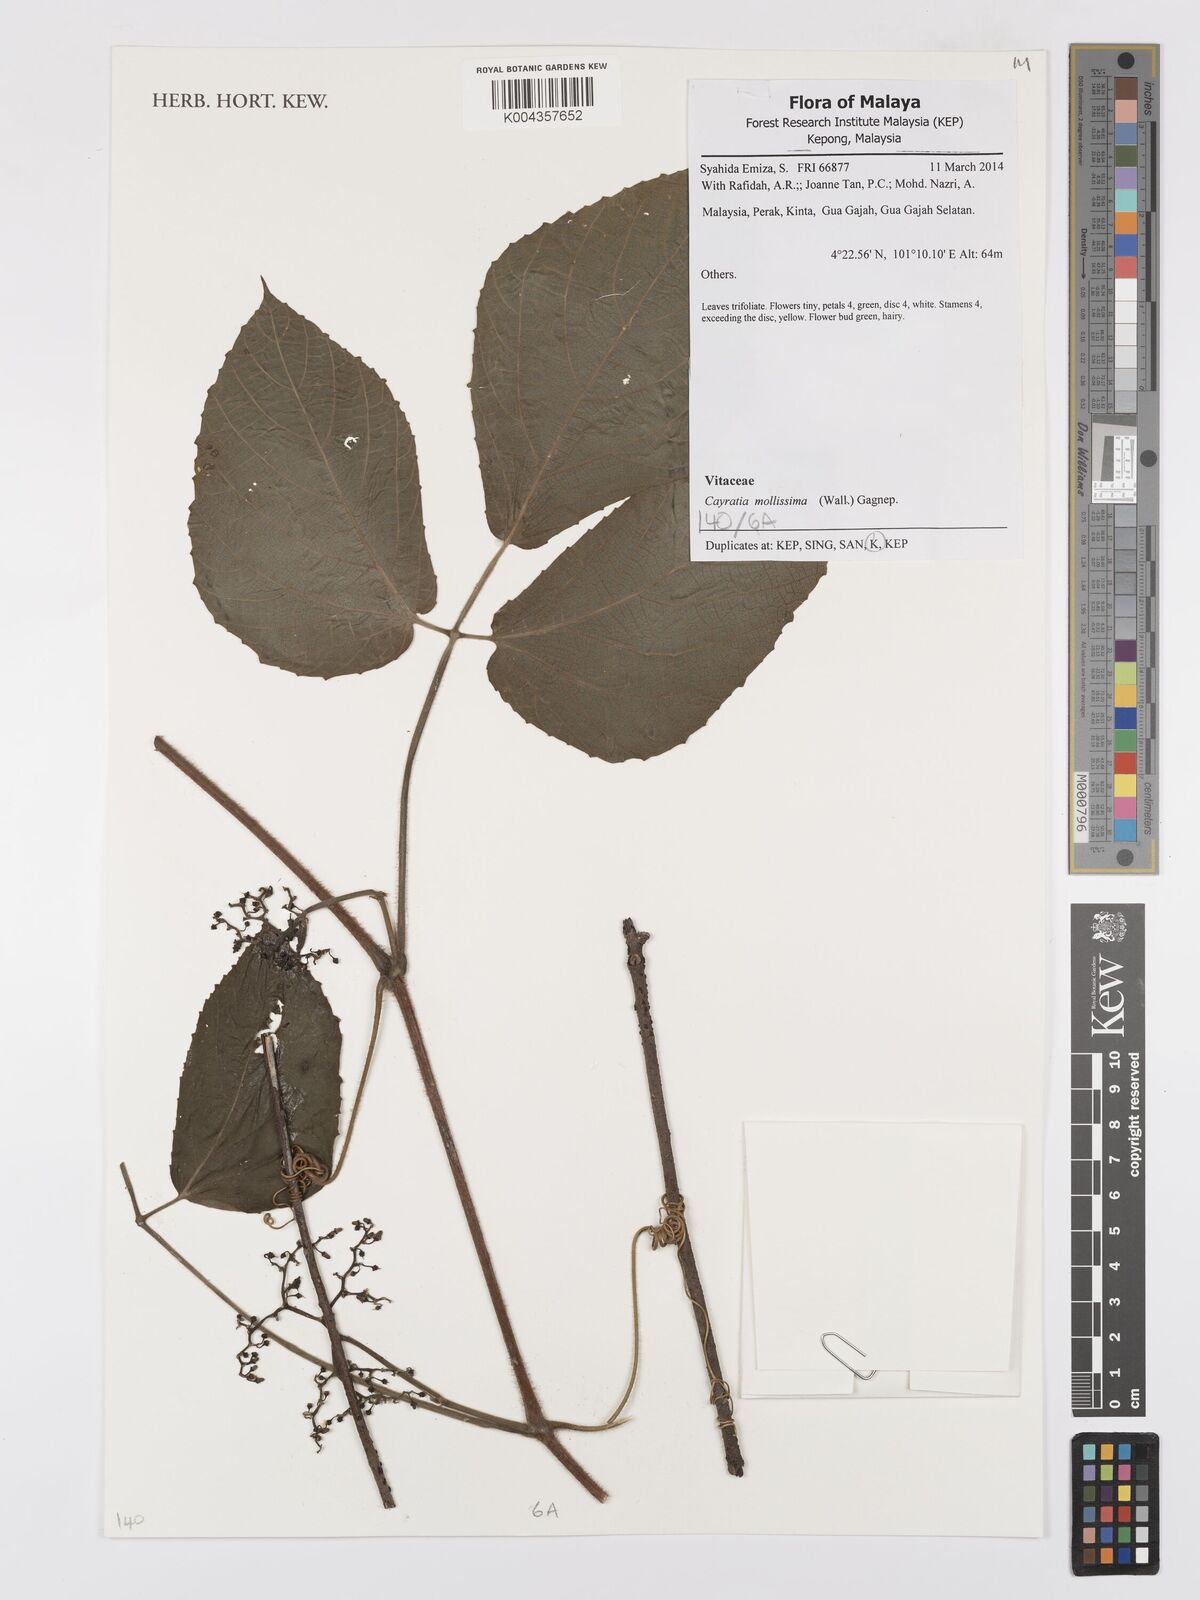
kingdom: Plantae
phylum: Tracheophyta
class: Magnoliopsida
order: Vitales
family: Vitaceae
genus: Cayratia
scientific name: Cayratia mollissima
